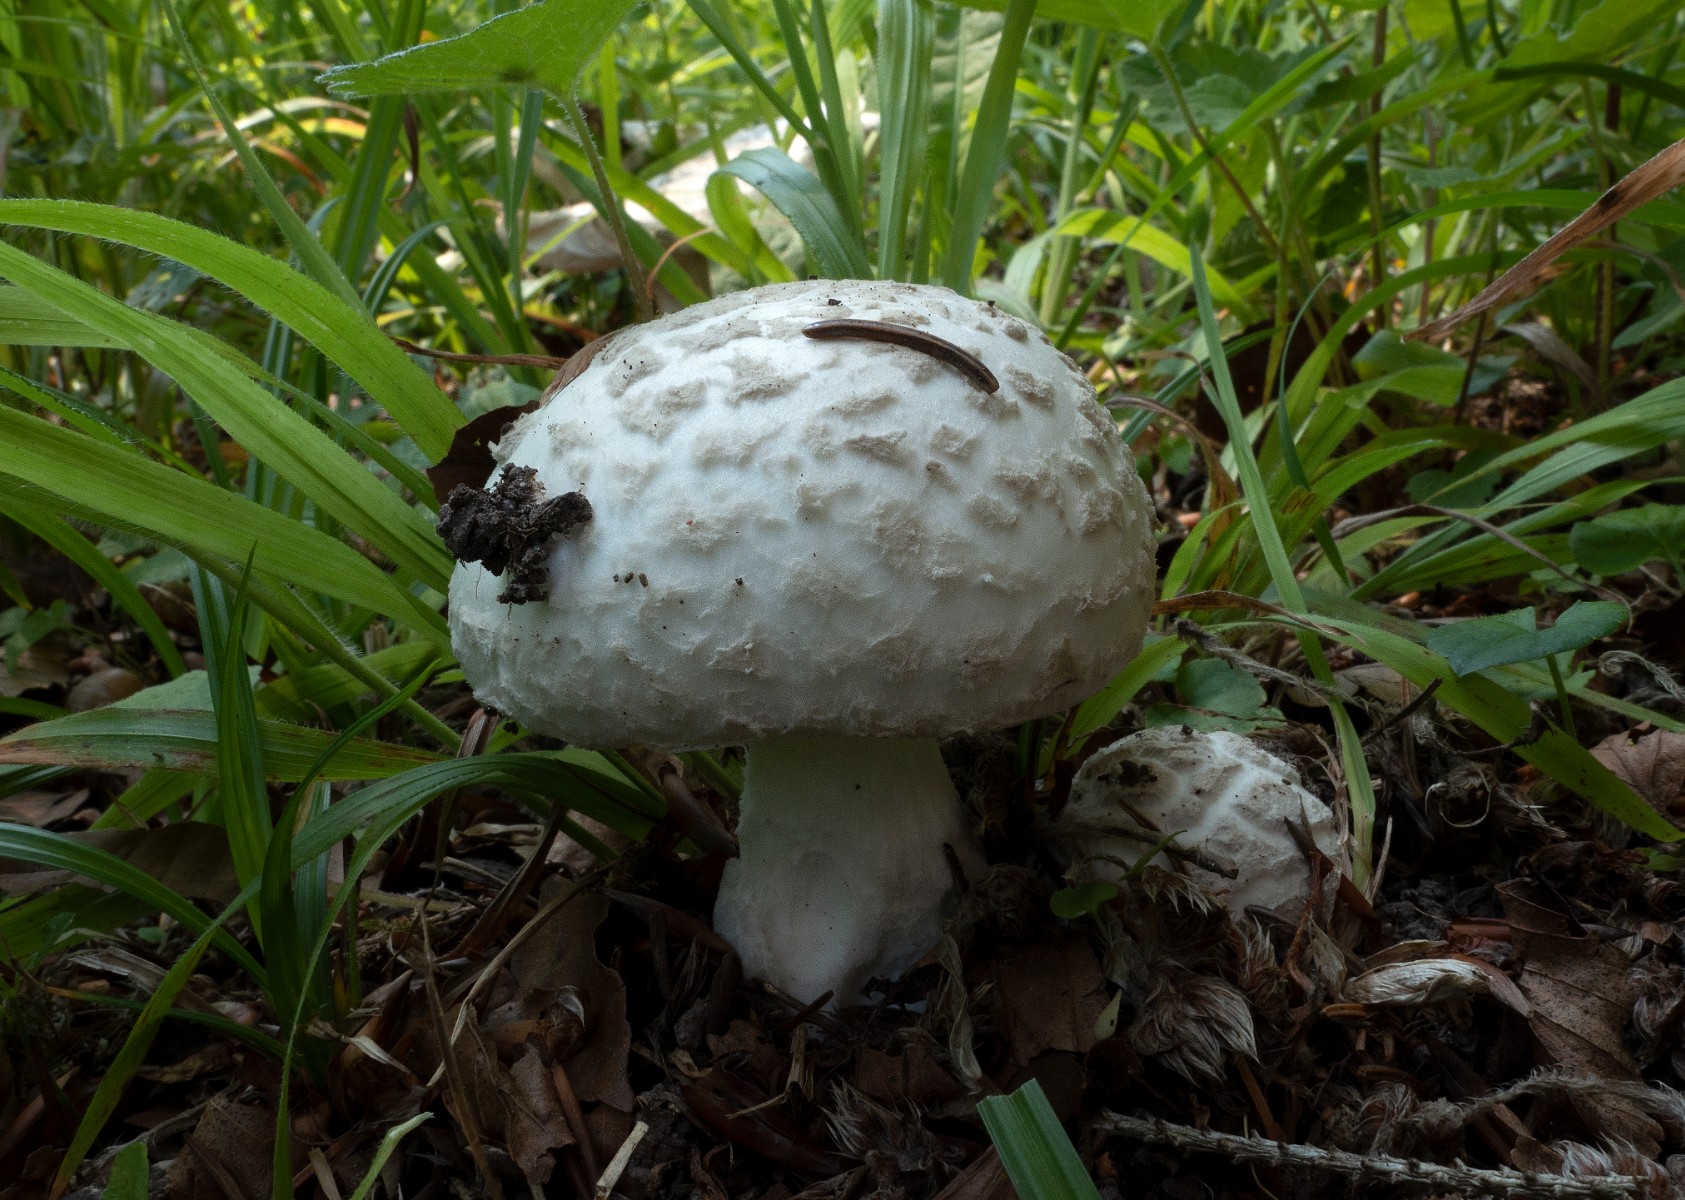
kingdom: Fungi
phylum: Basidiomycota
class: Agaricomycetes
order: Agaricales
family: Amanitaceae
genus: Amanita
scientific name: Amanita
